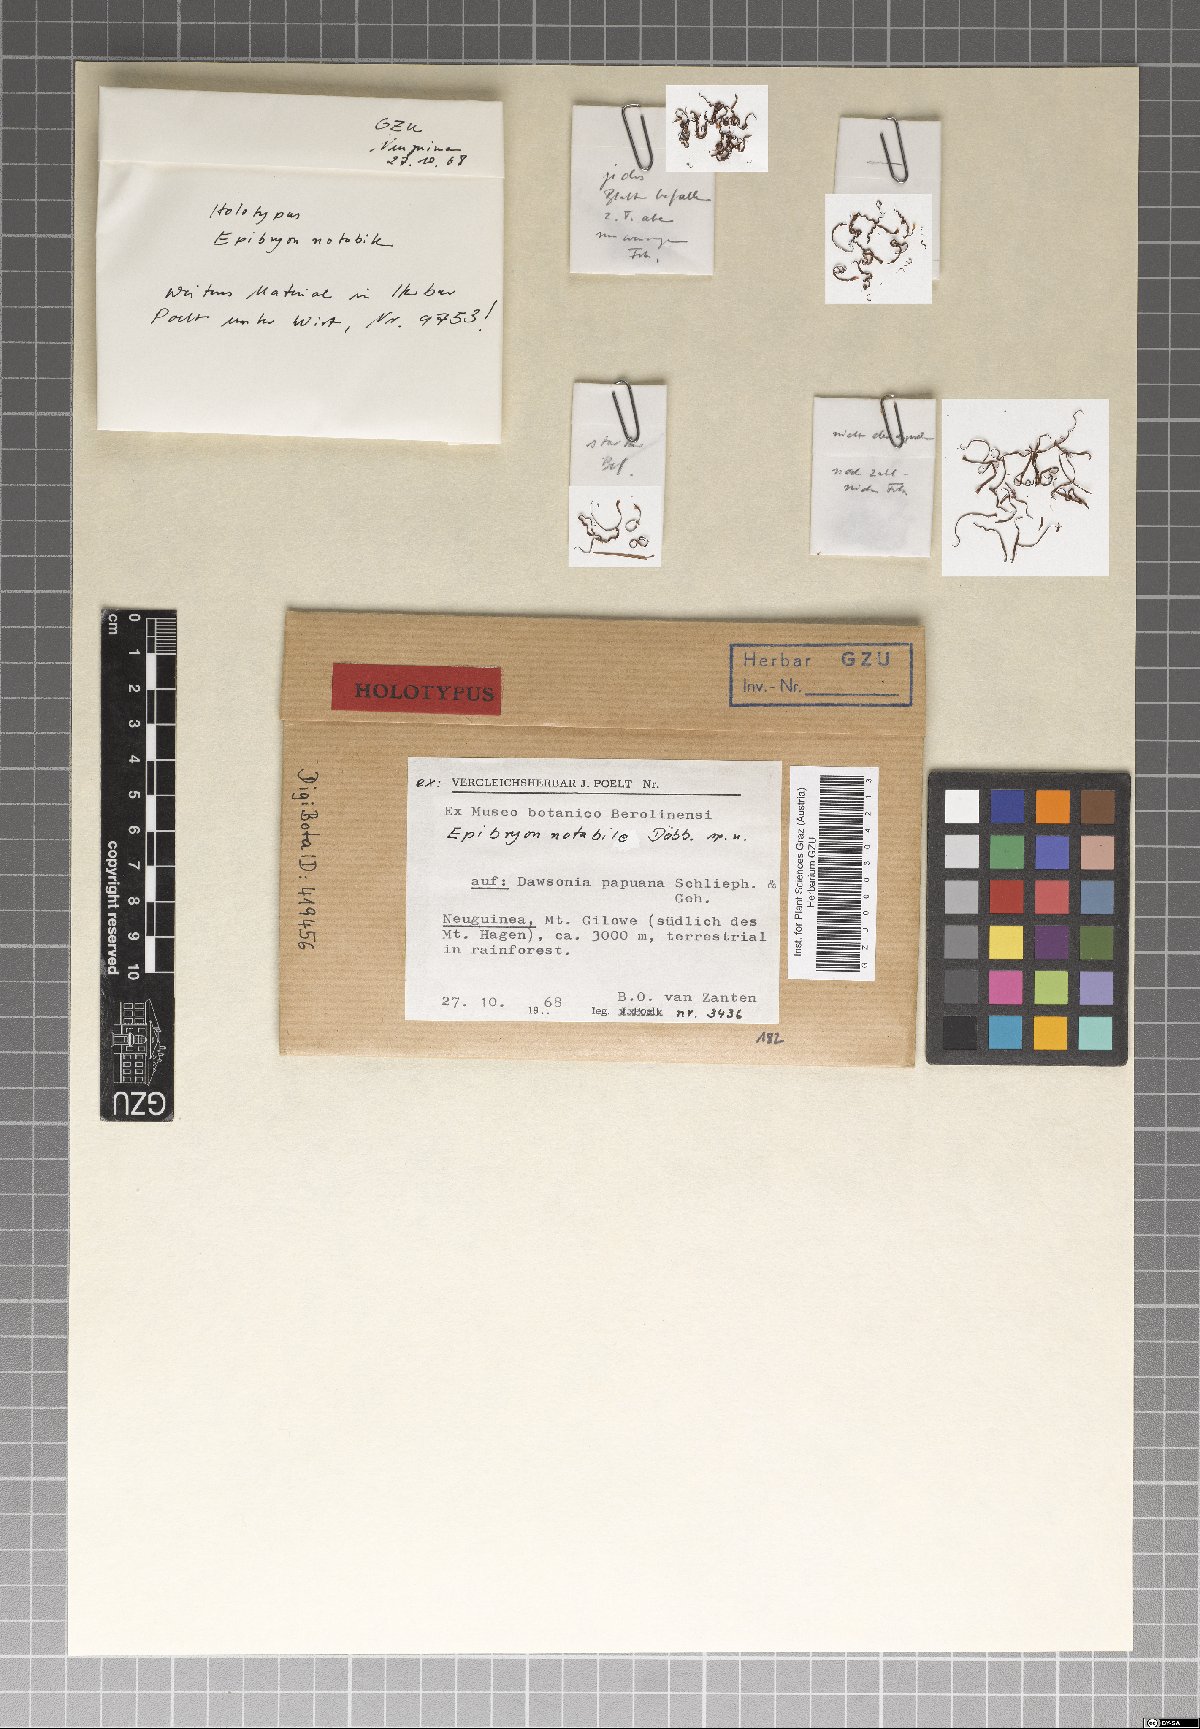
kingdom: Fungi
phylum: Ascomycota
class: Eurotiomycetes
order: Chaetothyriales
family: Epibryaceae
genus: Epibryon
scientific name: Epibryon notabile
